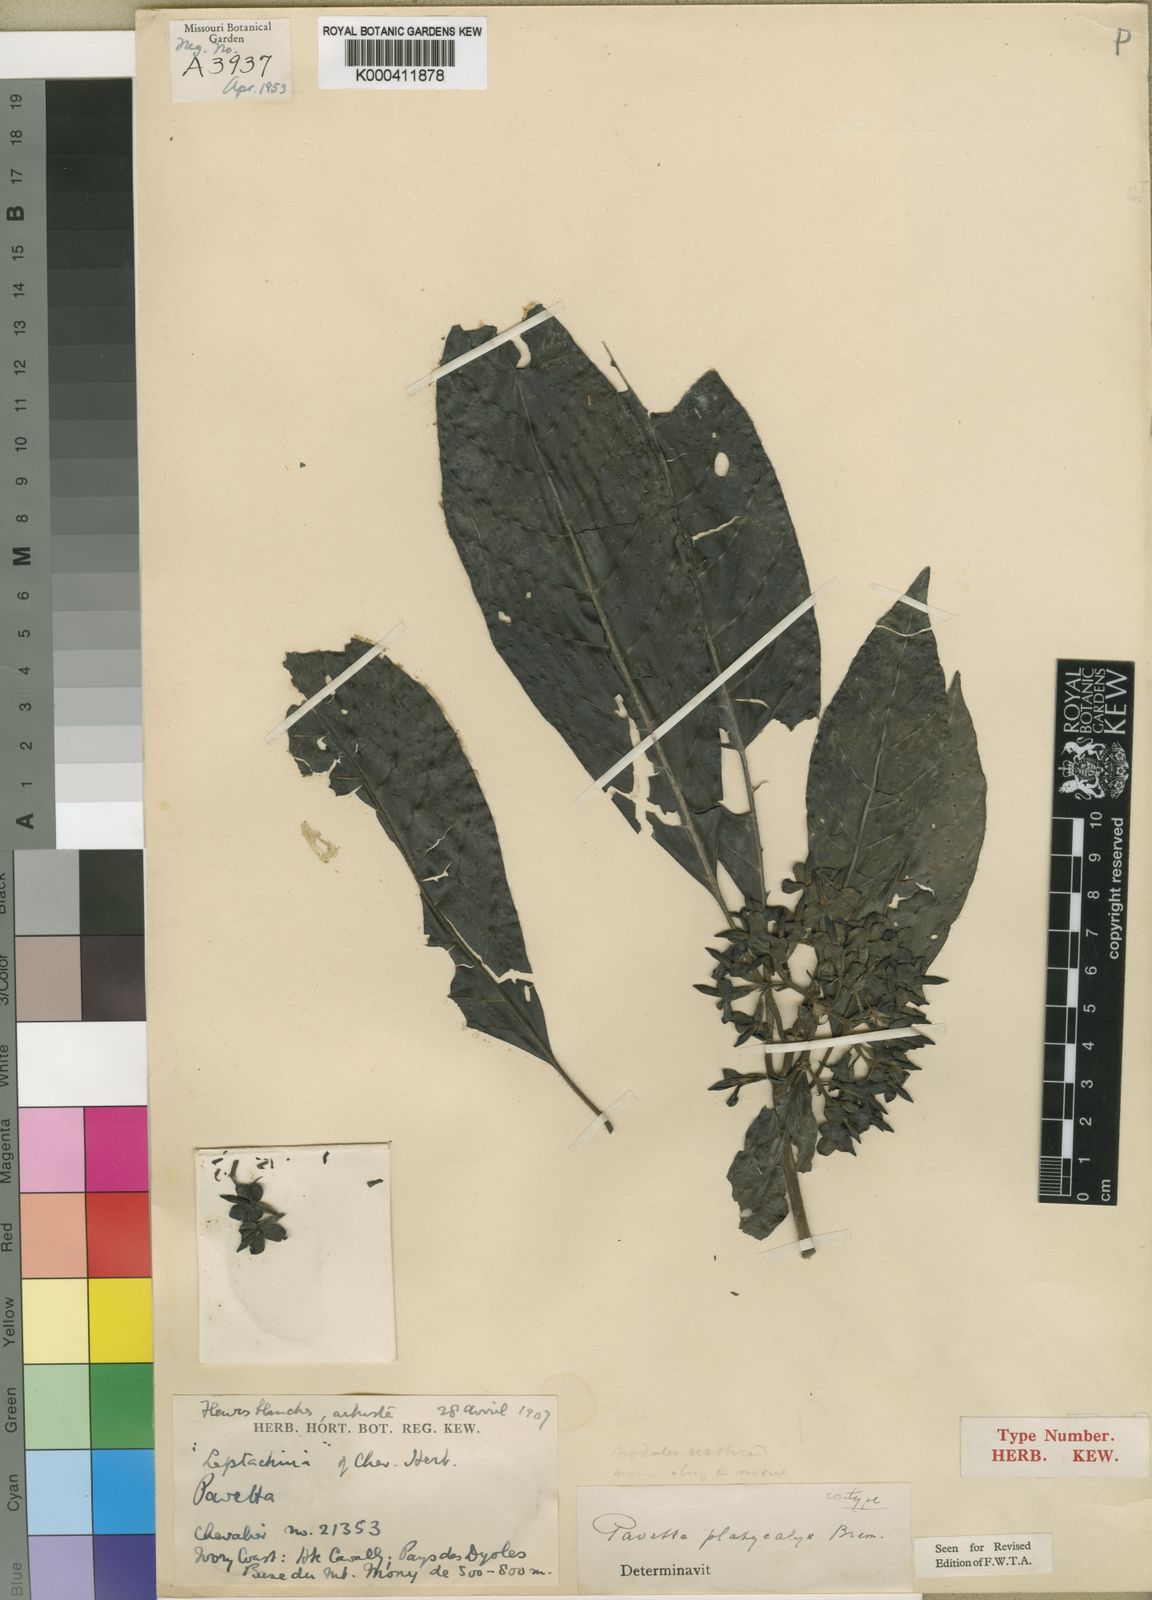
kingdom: Plantae
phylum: Tracheophyta
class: Magnoliopsida
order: Gentianales
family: Rubiaceae
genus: Pavetta
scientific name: Pavetta platycalyx
